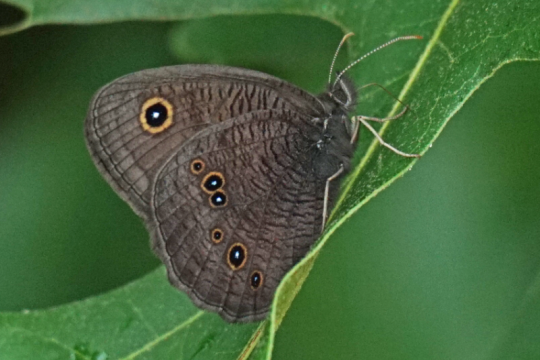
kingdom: Animalia
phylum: Arthropoda
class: Insecta
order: Lepidoptera
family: Nymphalidae
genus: Cercyonis
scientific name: Cercyonis pegala
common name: Common Wood-Nymph
